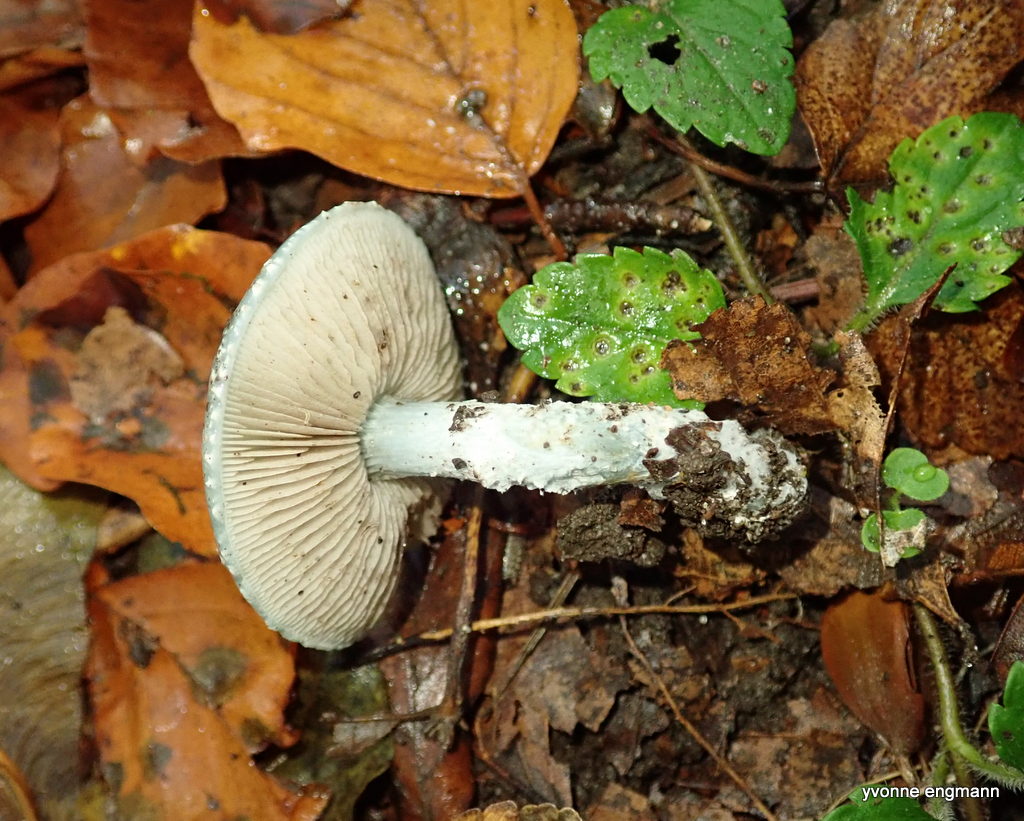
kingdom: Fungi
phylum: Basidiomycota
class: Agaricomycetes
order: Agaricales
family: Strophariaceae
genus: Stropharia
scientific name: Stropharia cyanea
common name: blågrøn bredblad
